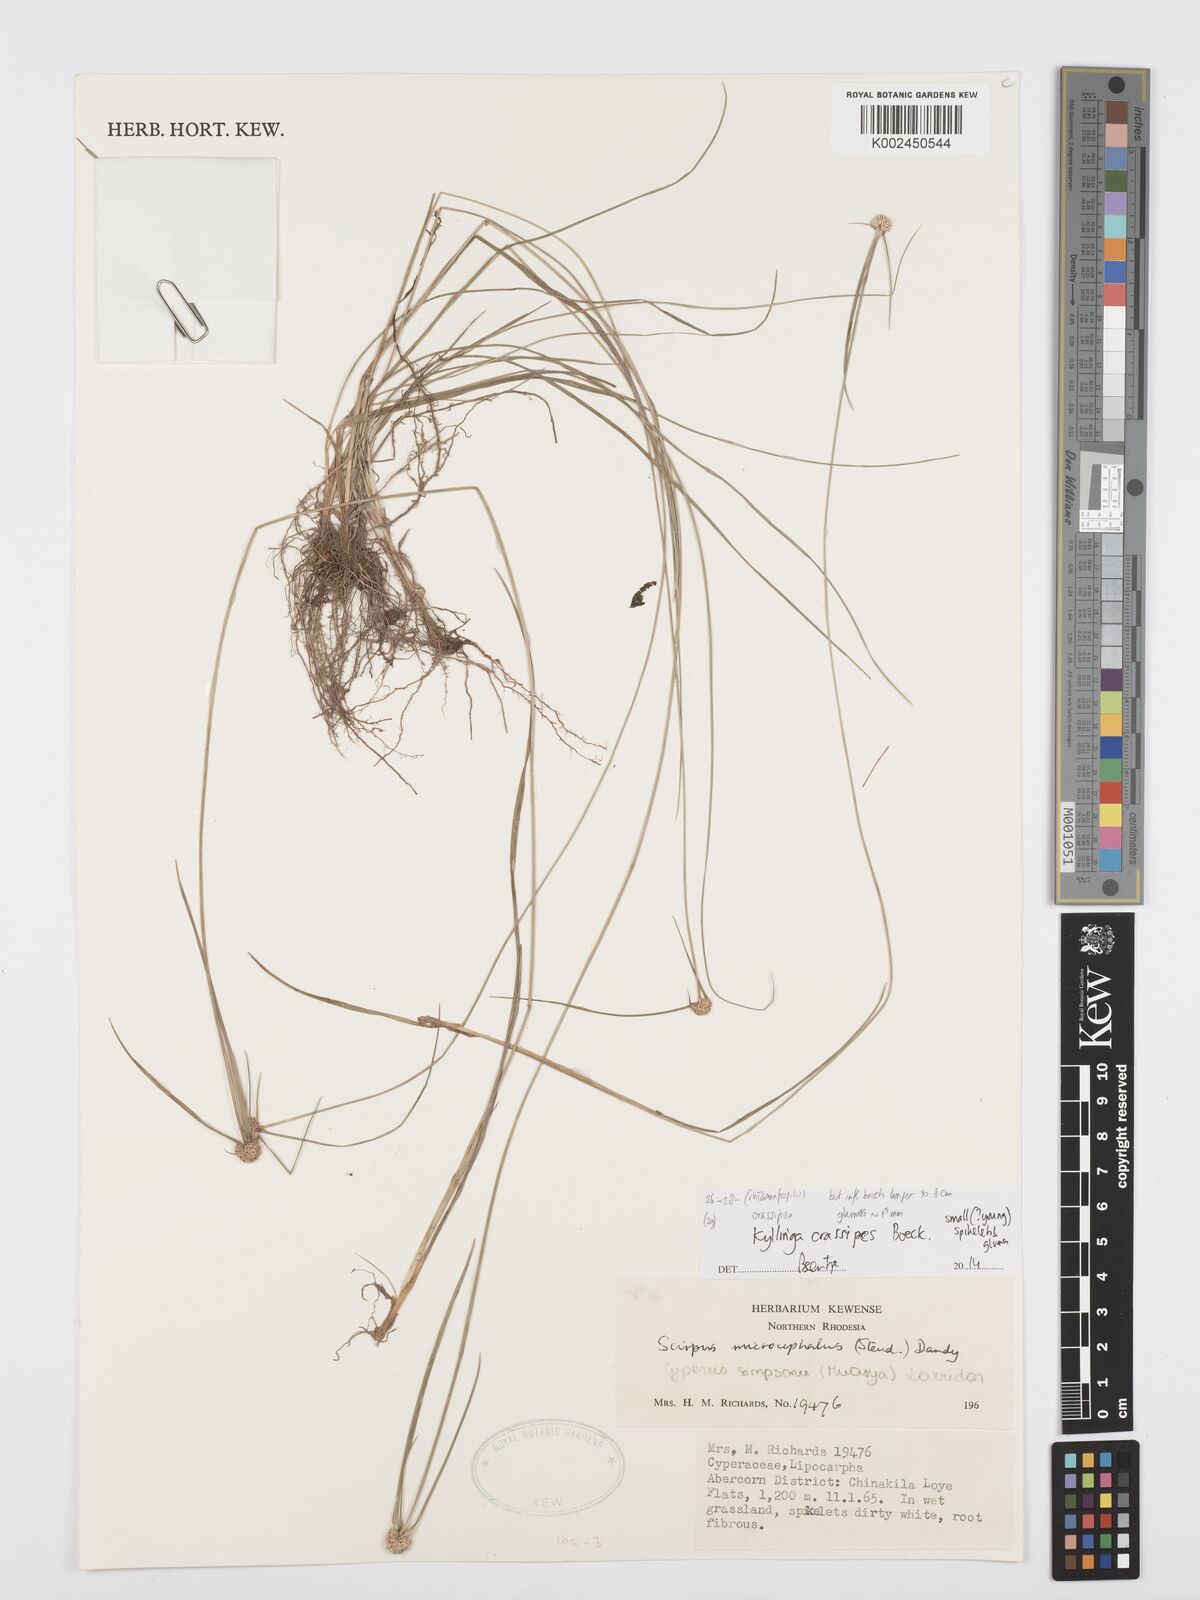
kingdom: Plantae
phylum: Tracheophyta
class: Liliopsida
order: Poales
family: Cyperaceae
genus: Cyperus
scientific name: Cyperus crassipes
